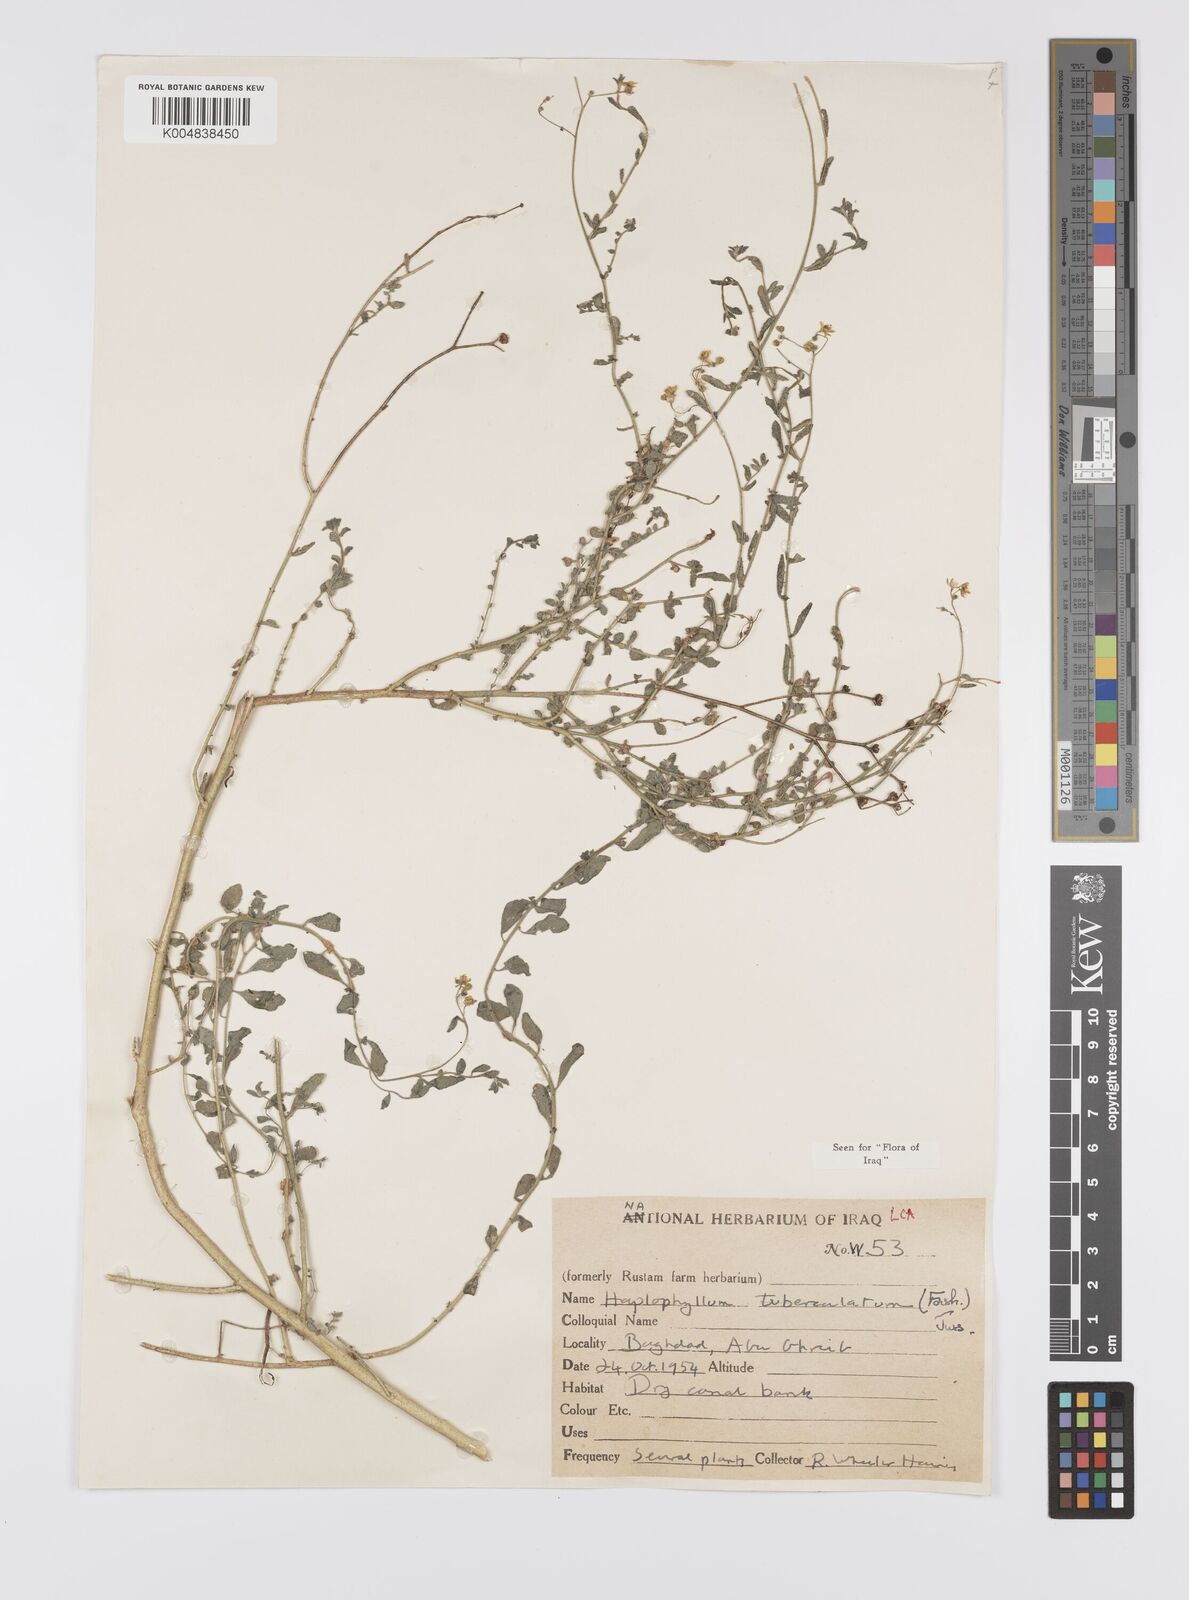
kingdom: Plantae
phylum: Tracheophyta
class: Magnoliopsida
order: Sapindales
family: Rutaceae
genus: Haplophyllum
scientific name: Haplophyllum tuberculatum
